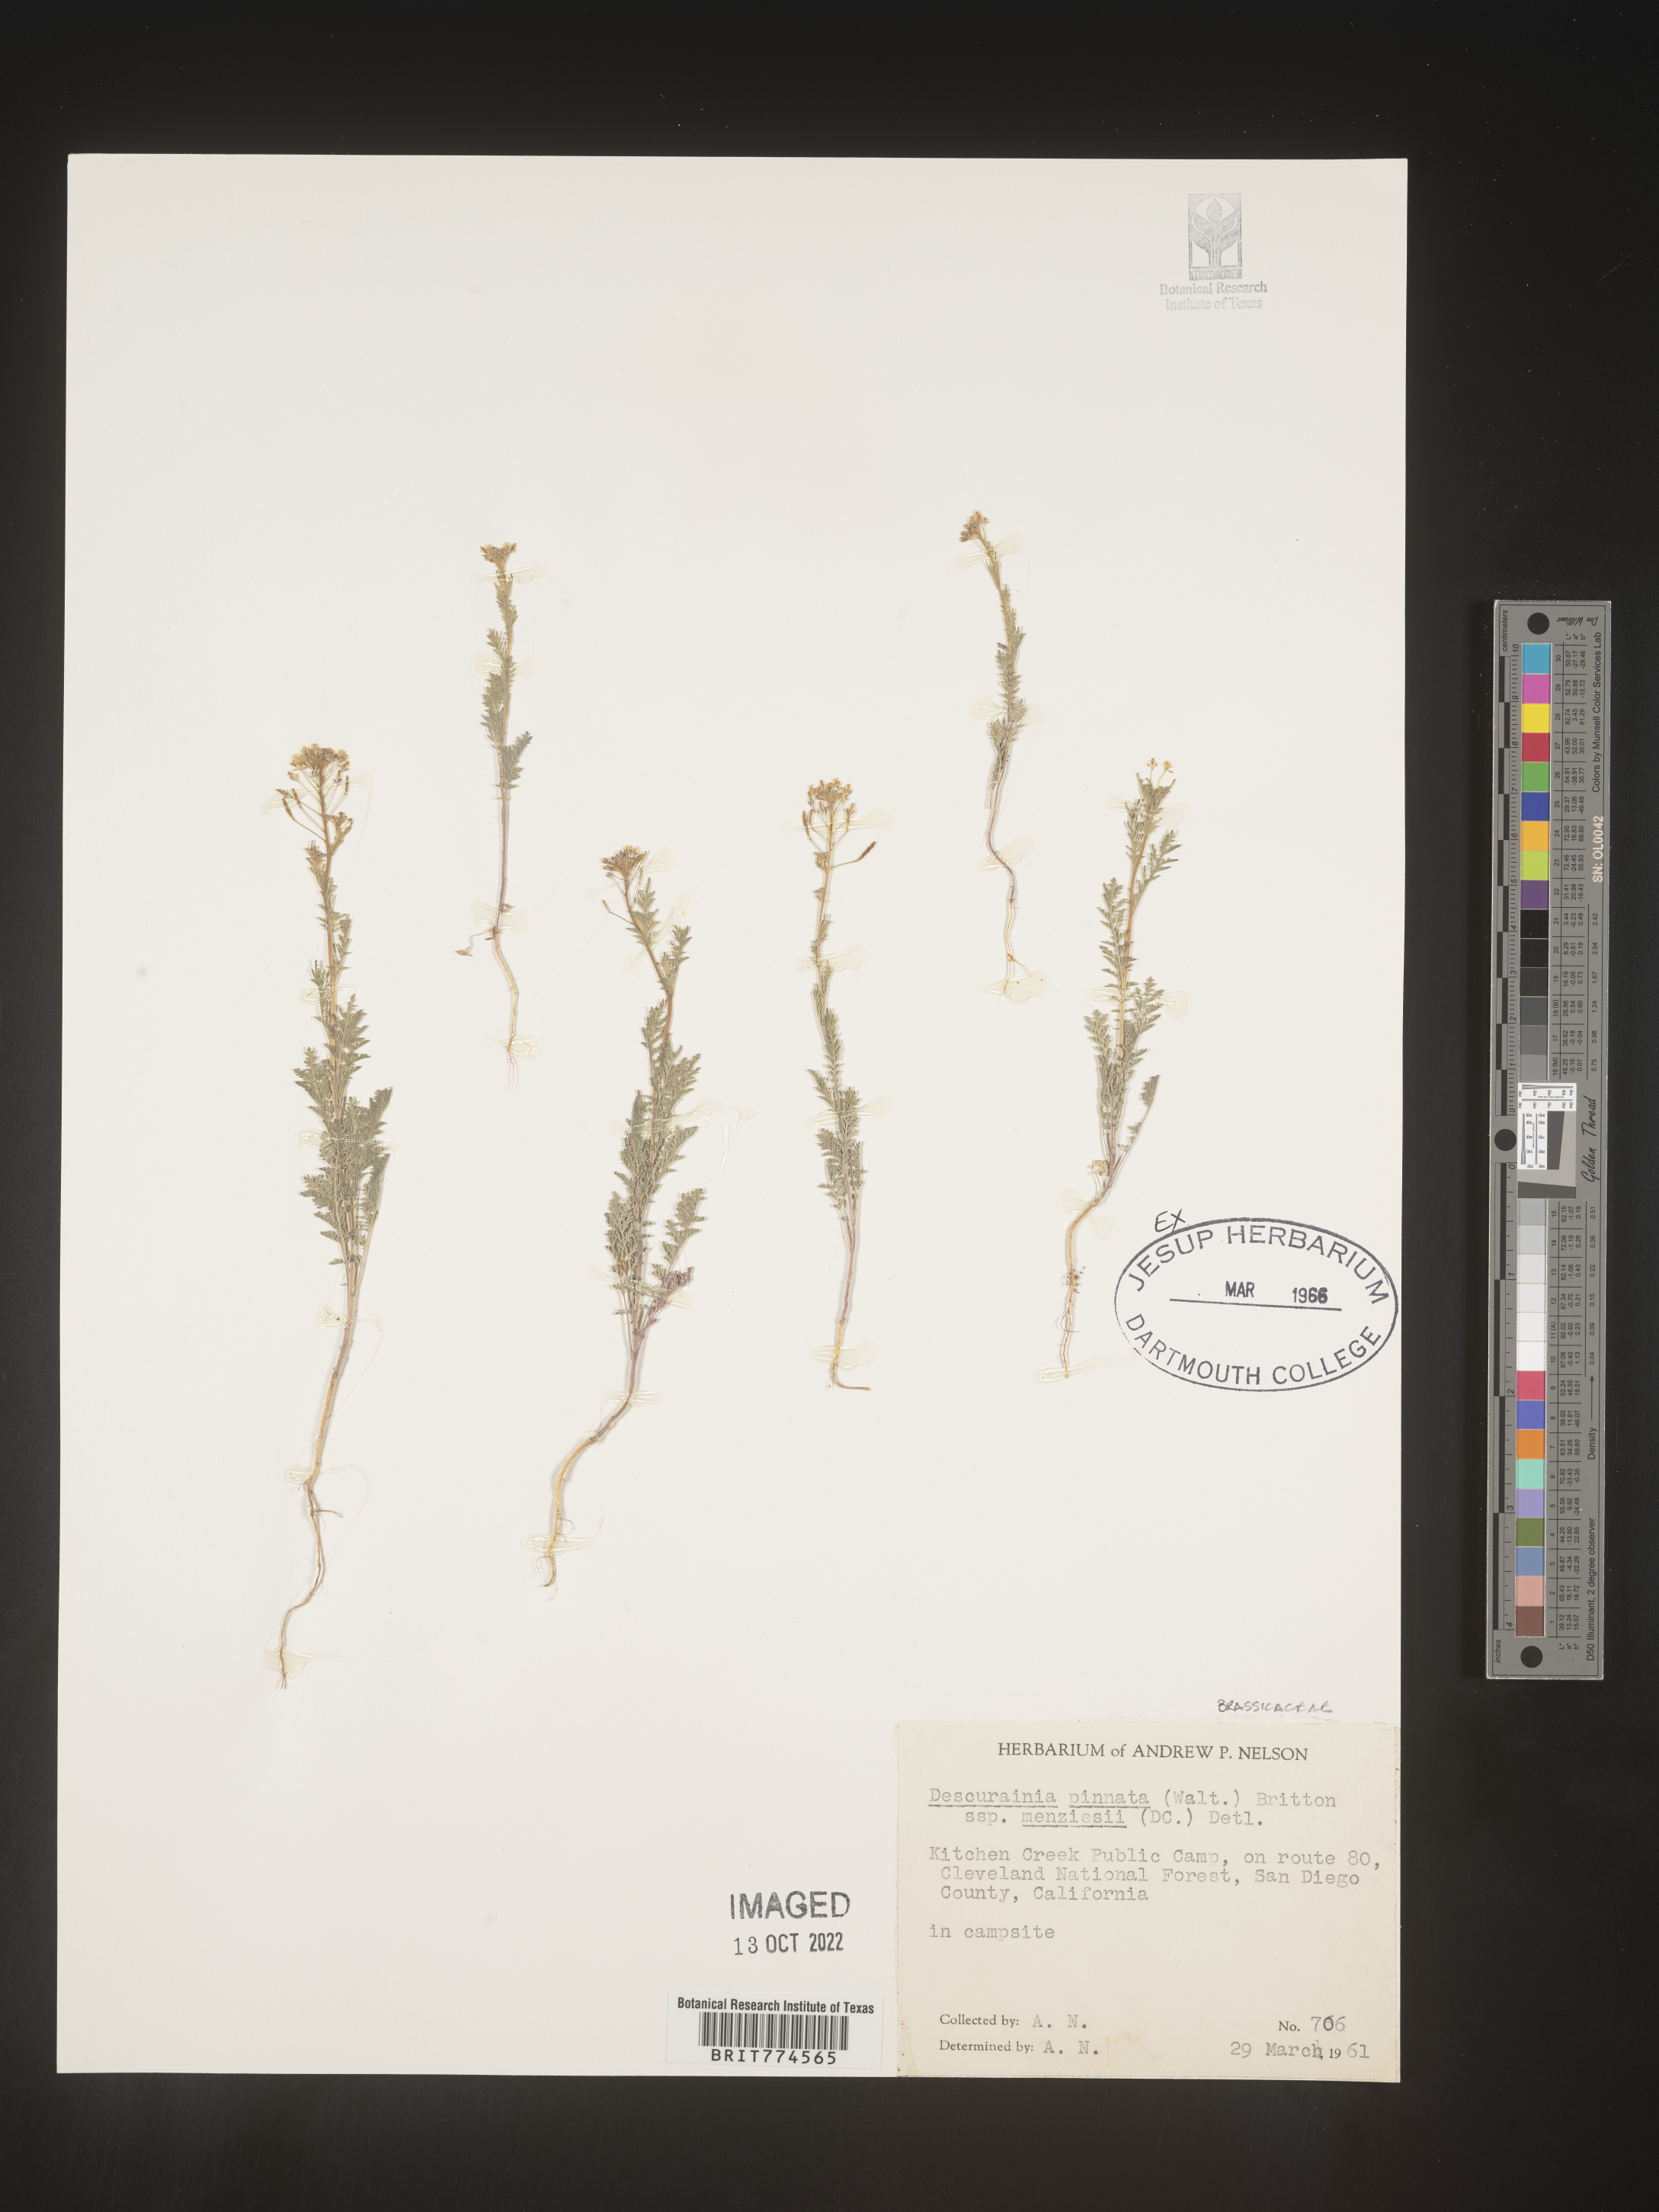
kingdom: Plantae
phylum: Tracheophyta
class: Magnoliopsida
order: Brassicales
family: Brassicaceae
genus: Descurainia
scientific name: Descurainia pinnata
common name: Western tansy mustard
